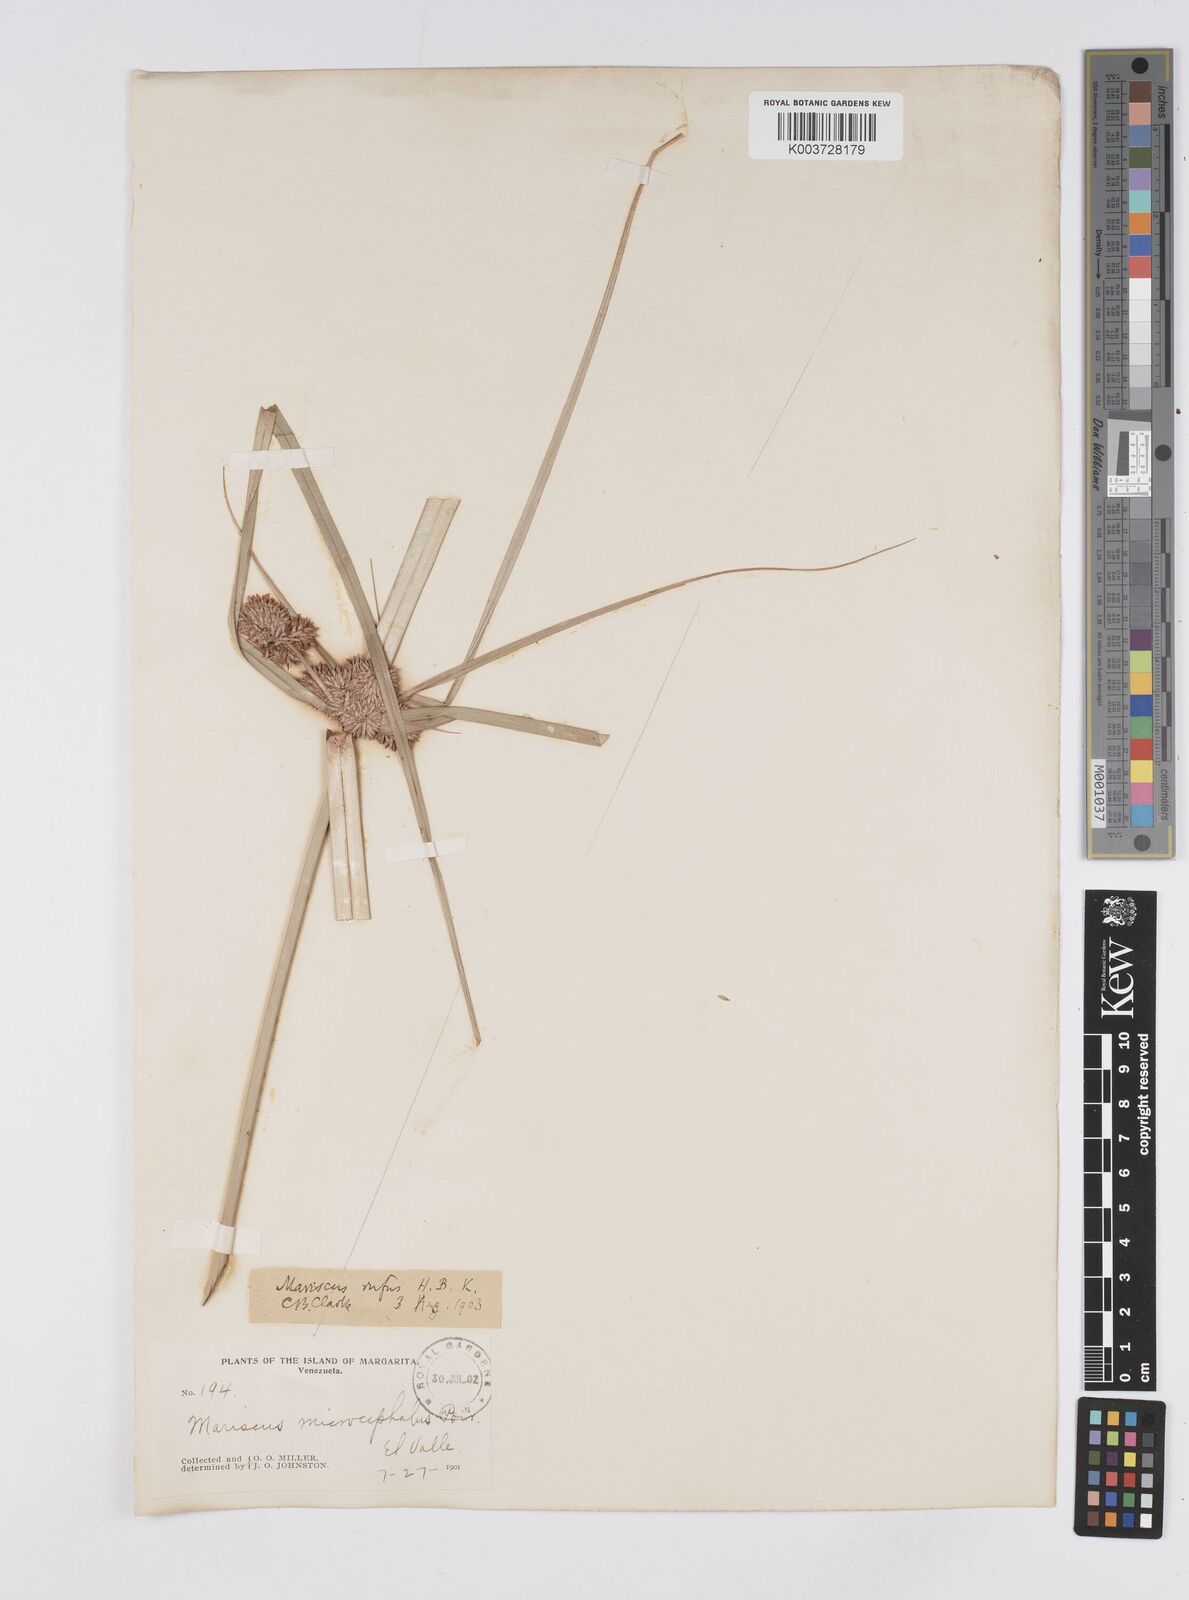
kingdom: Plantae
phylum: Tracheophyta
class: Liliopsida
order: Poales
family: Cyperaceae
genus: Cyperus
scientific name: Cyperus ligularis
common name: Swamp flat sedge
